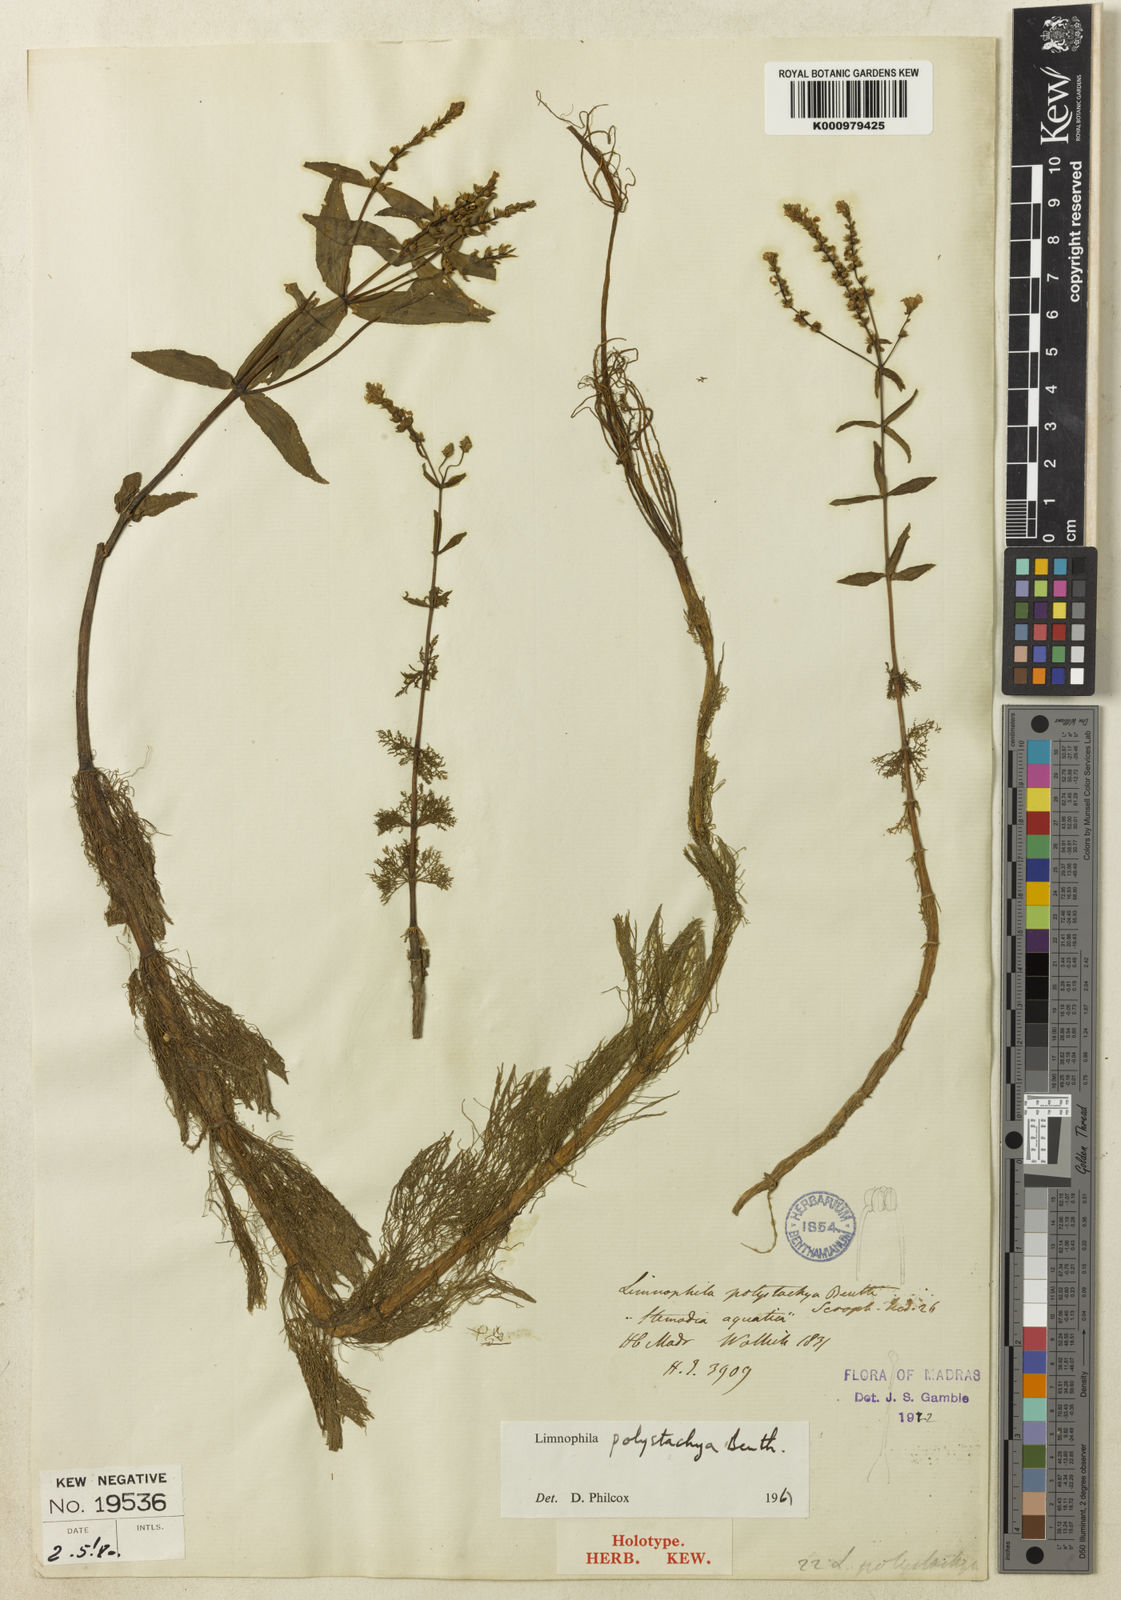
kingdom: Plantae
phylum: Tracheophyta
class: Magnoliopsida
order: Lamiales
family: Plantaginaceae
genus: Limnophila
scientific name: Limnophila polystachya
